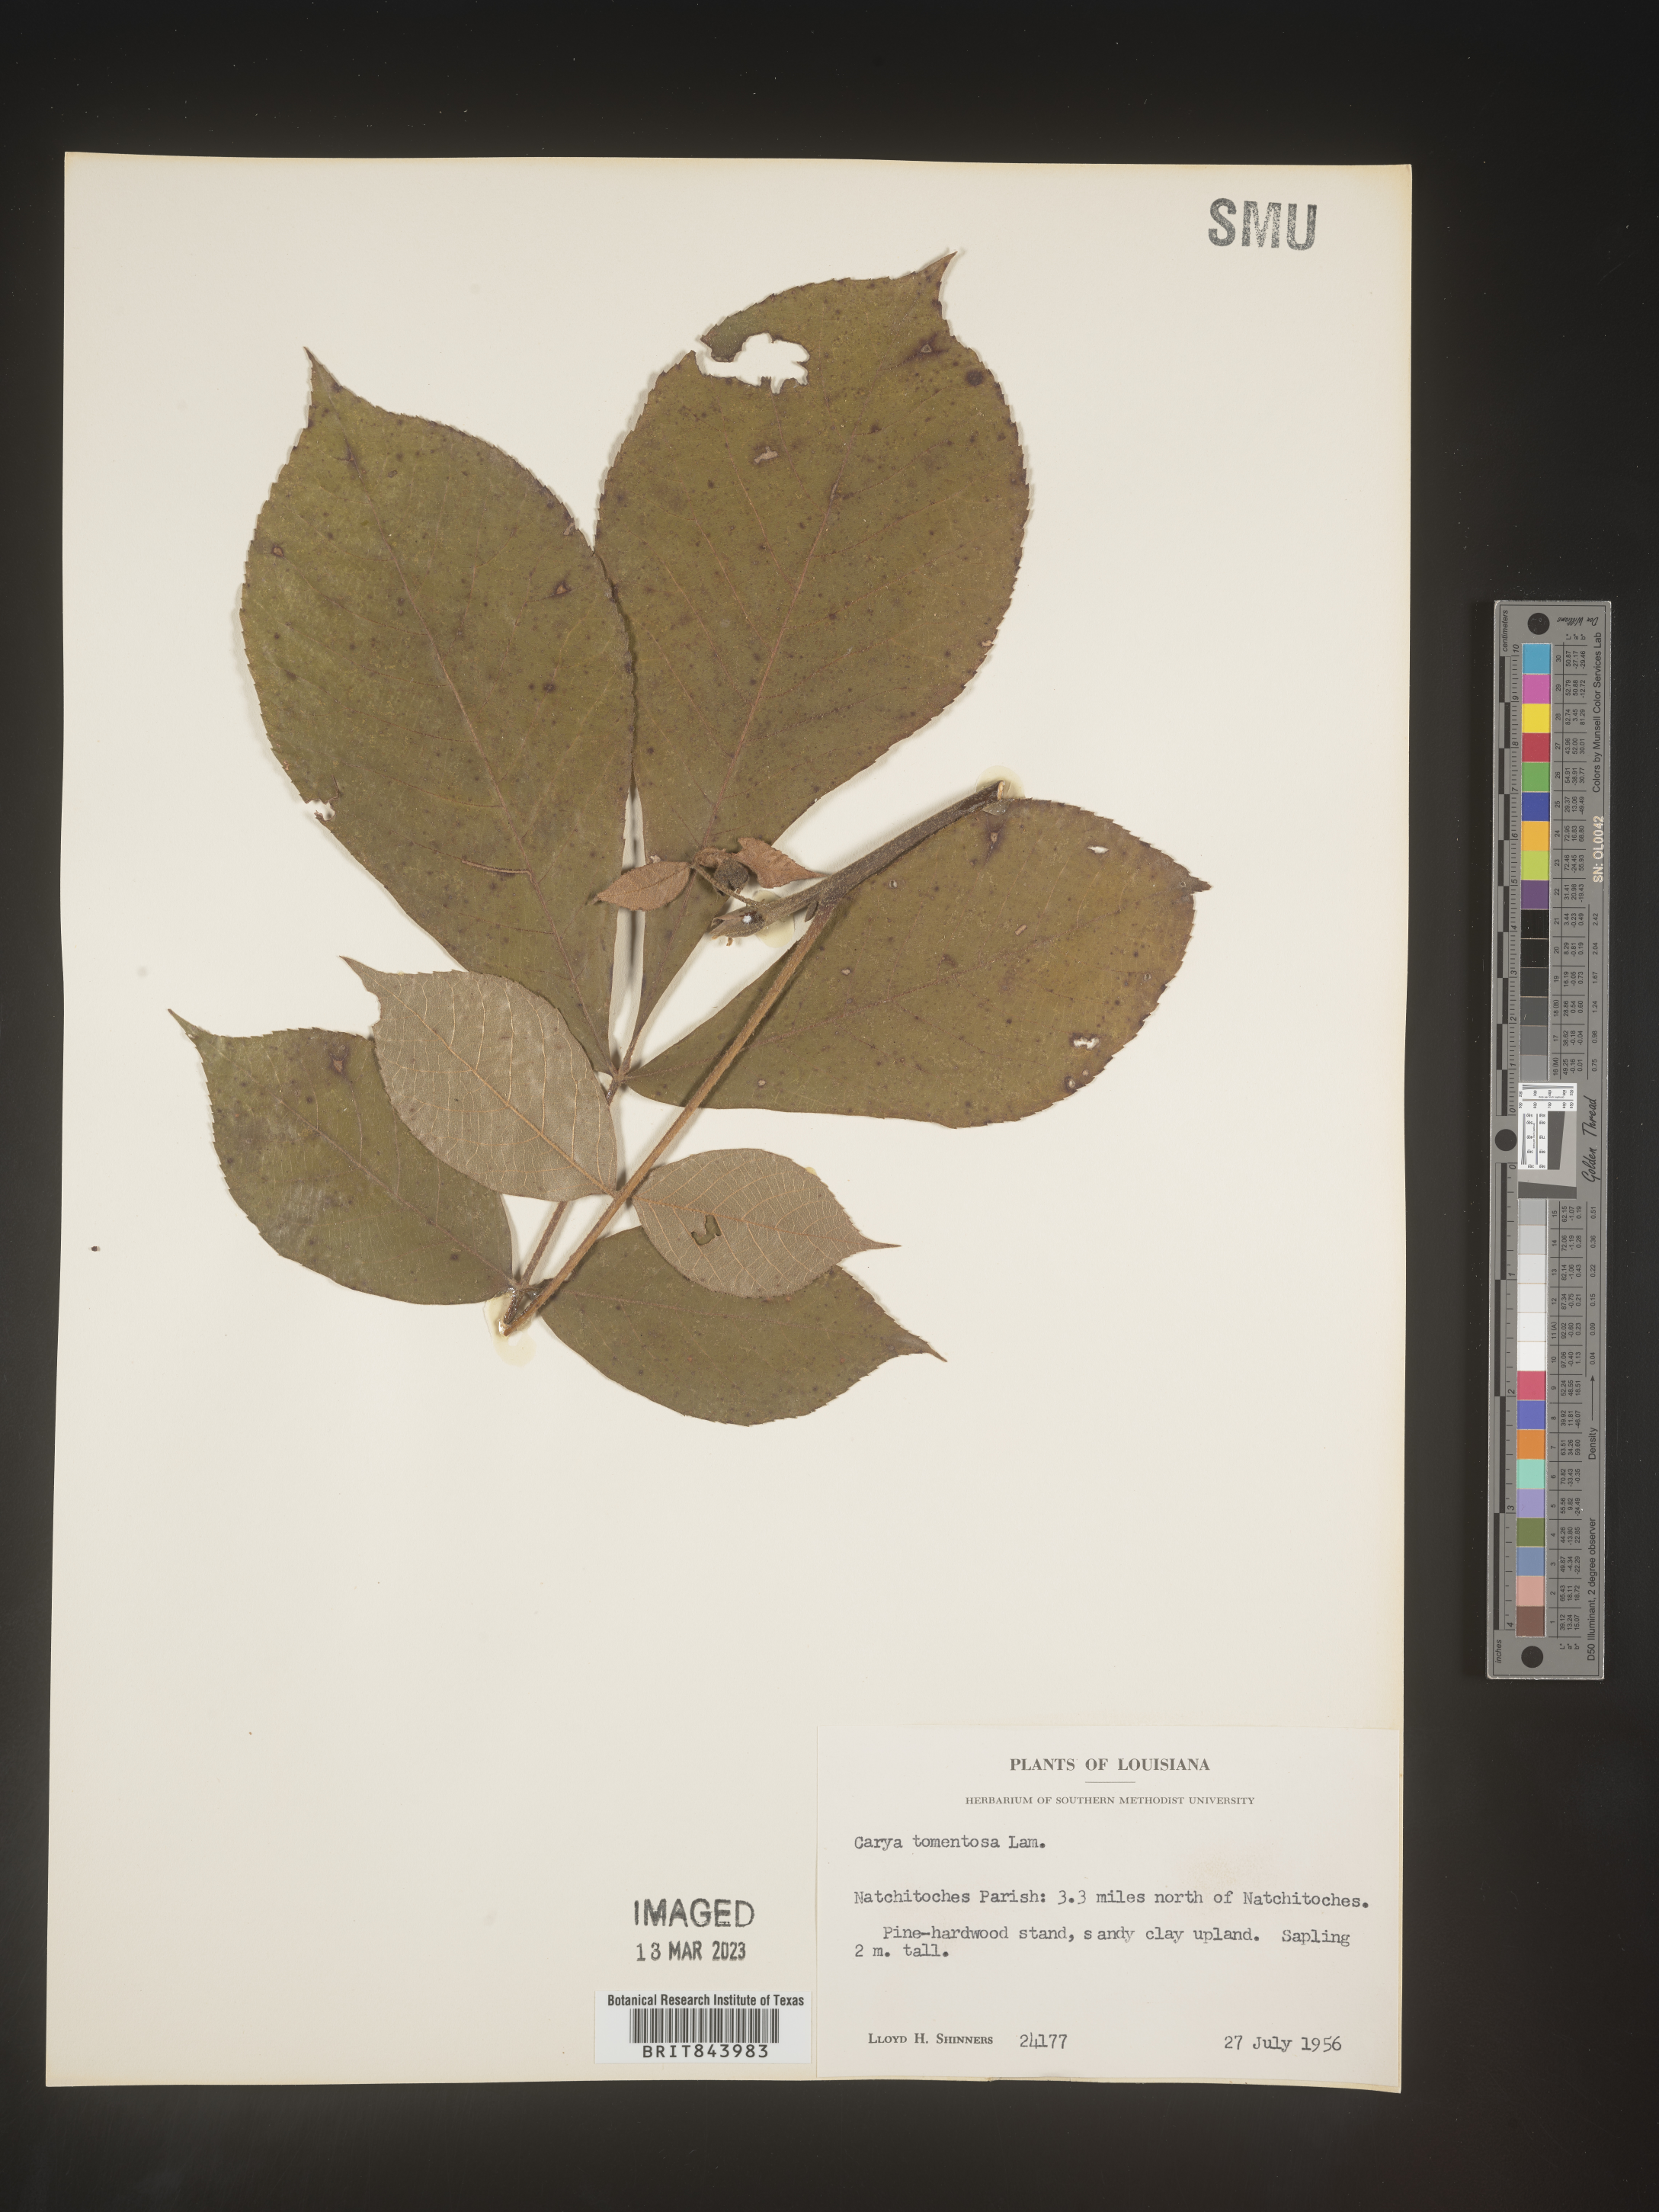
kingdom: Plantae
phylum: Tracheophyta
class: Magnoliopsida
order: Fagales
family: Juglandaceae
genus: Carya
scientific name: Carya alba
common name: Mockernut hickory
